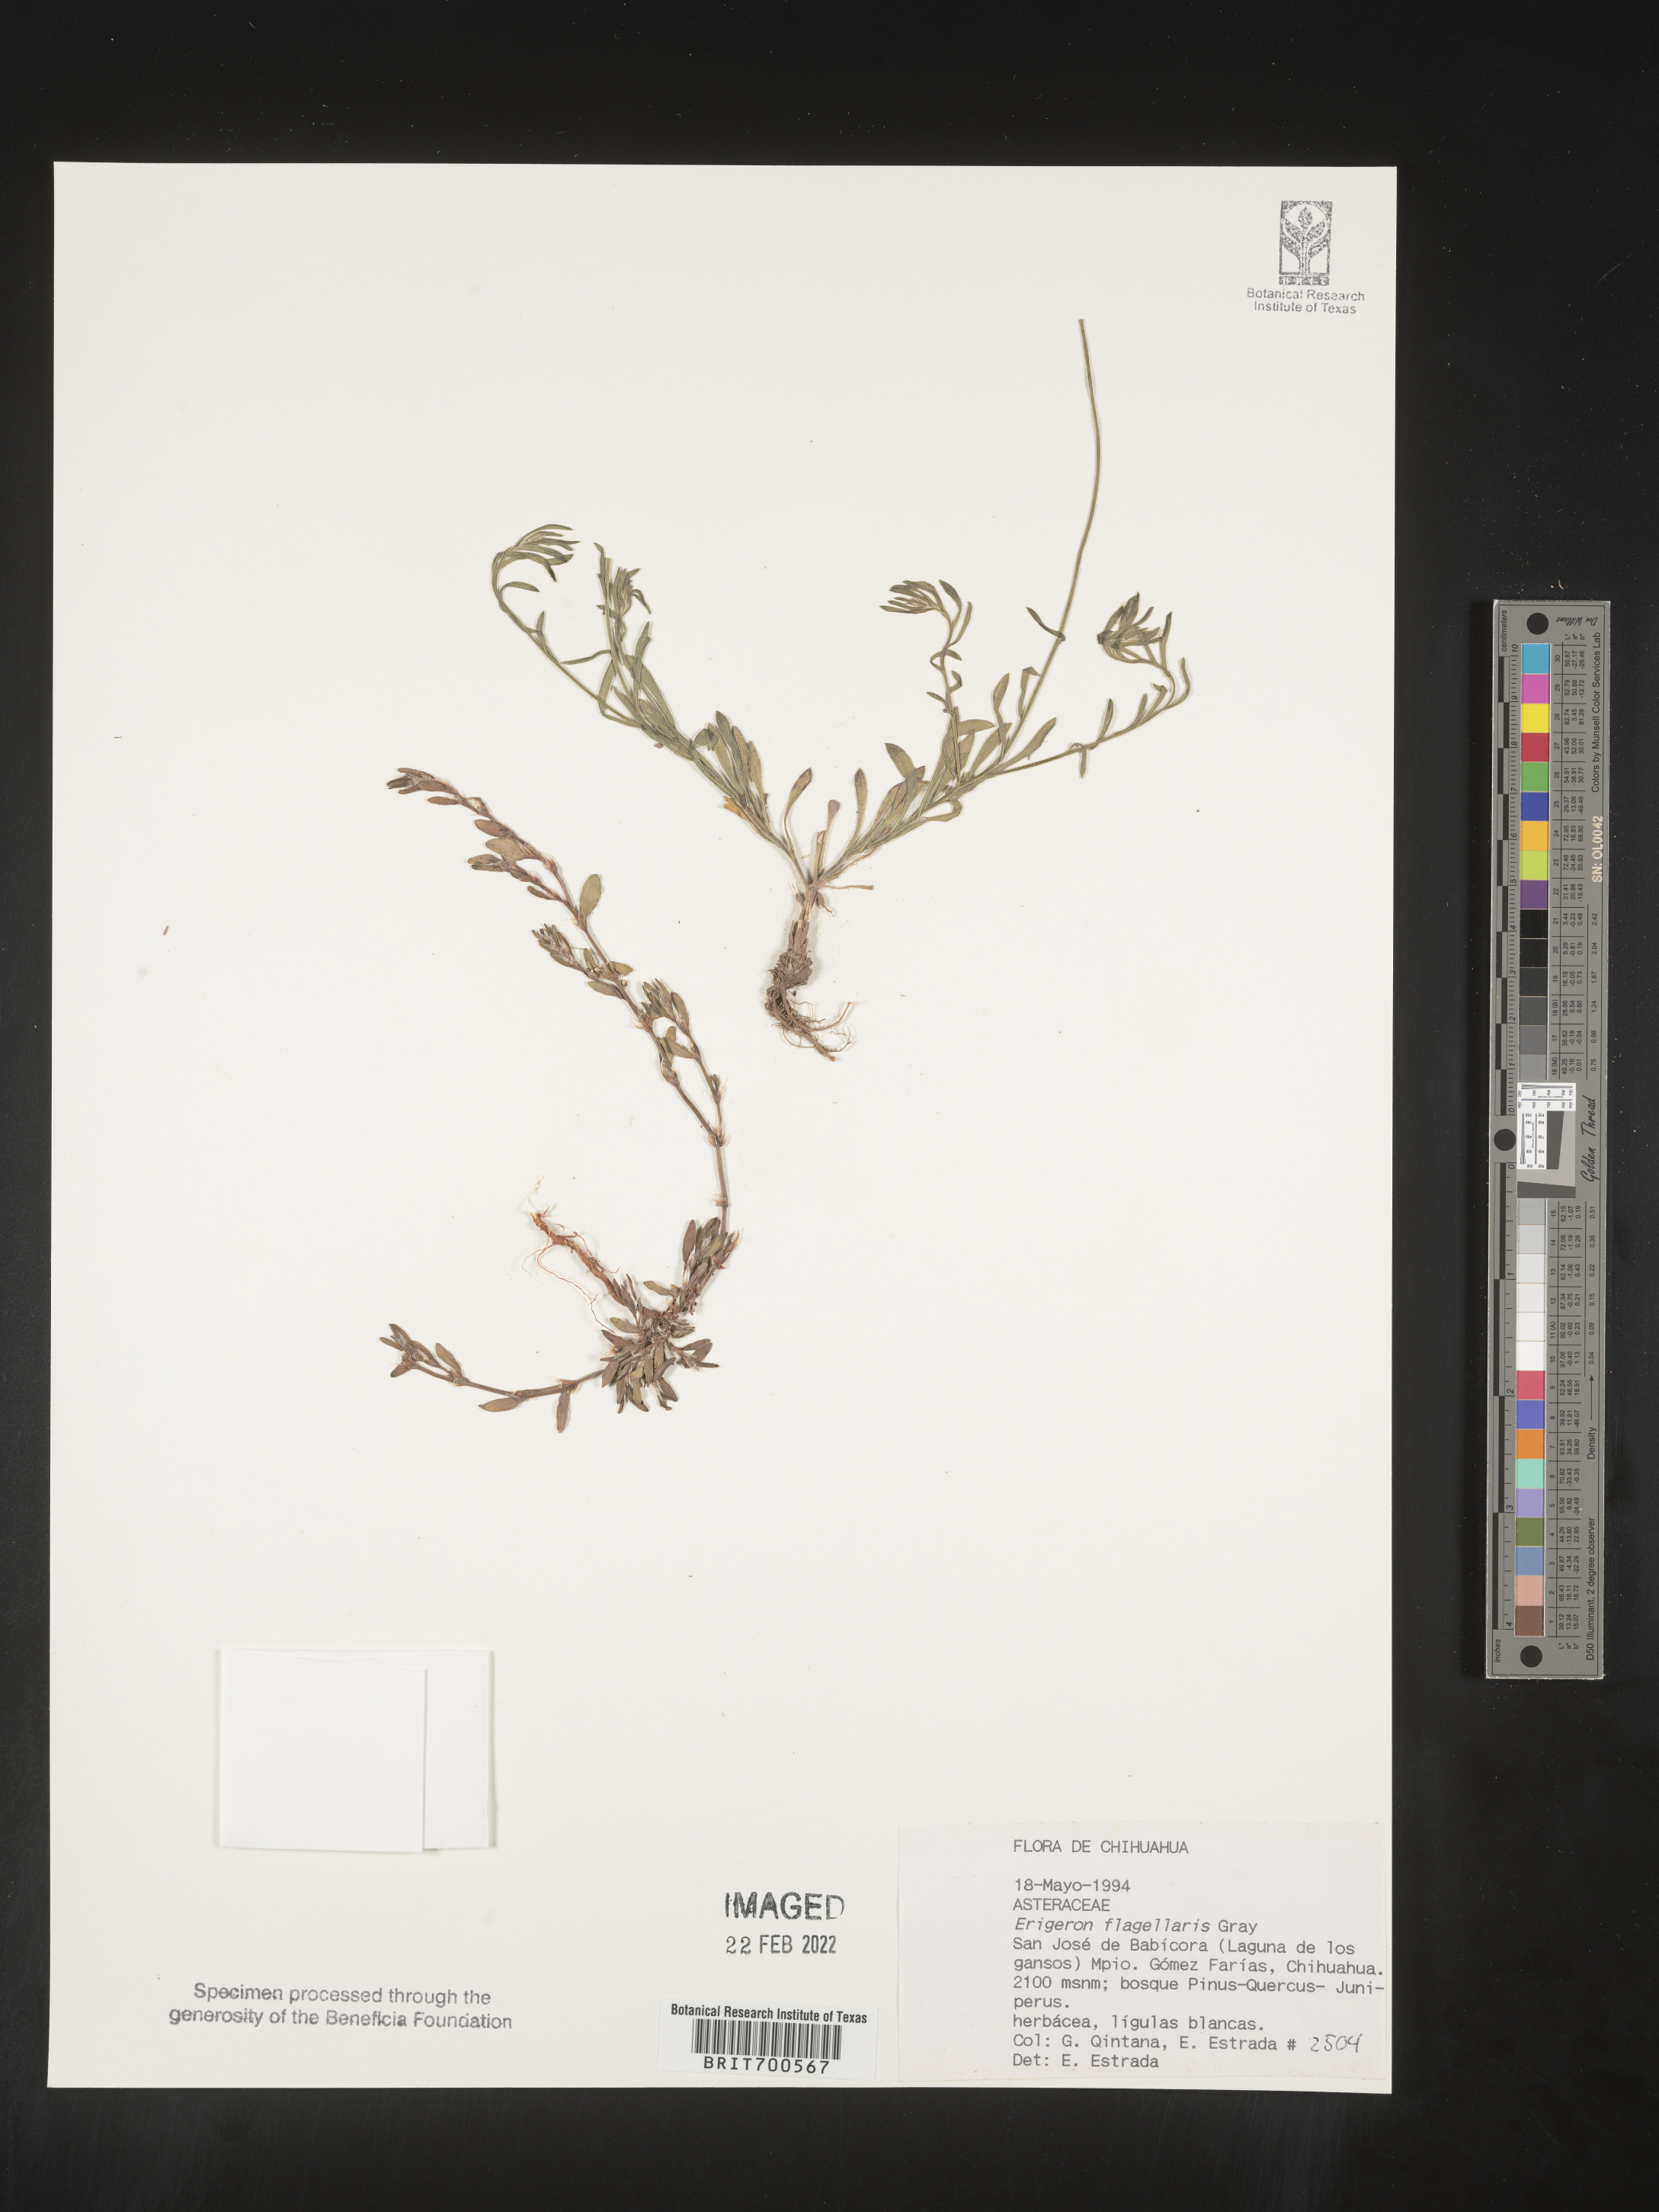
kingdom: Plantae
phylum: Tracheophyta
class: Magnoliopsida
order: Asterales
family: Asteraceae
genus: Erigeron
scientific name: Erigeron flagellaris
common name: Running fleabane
